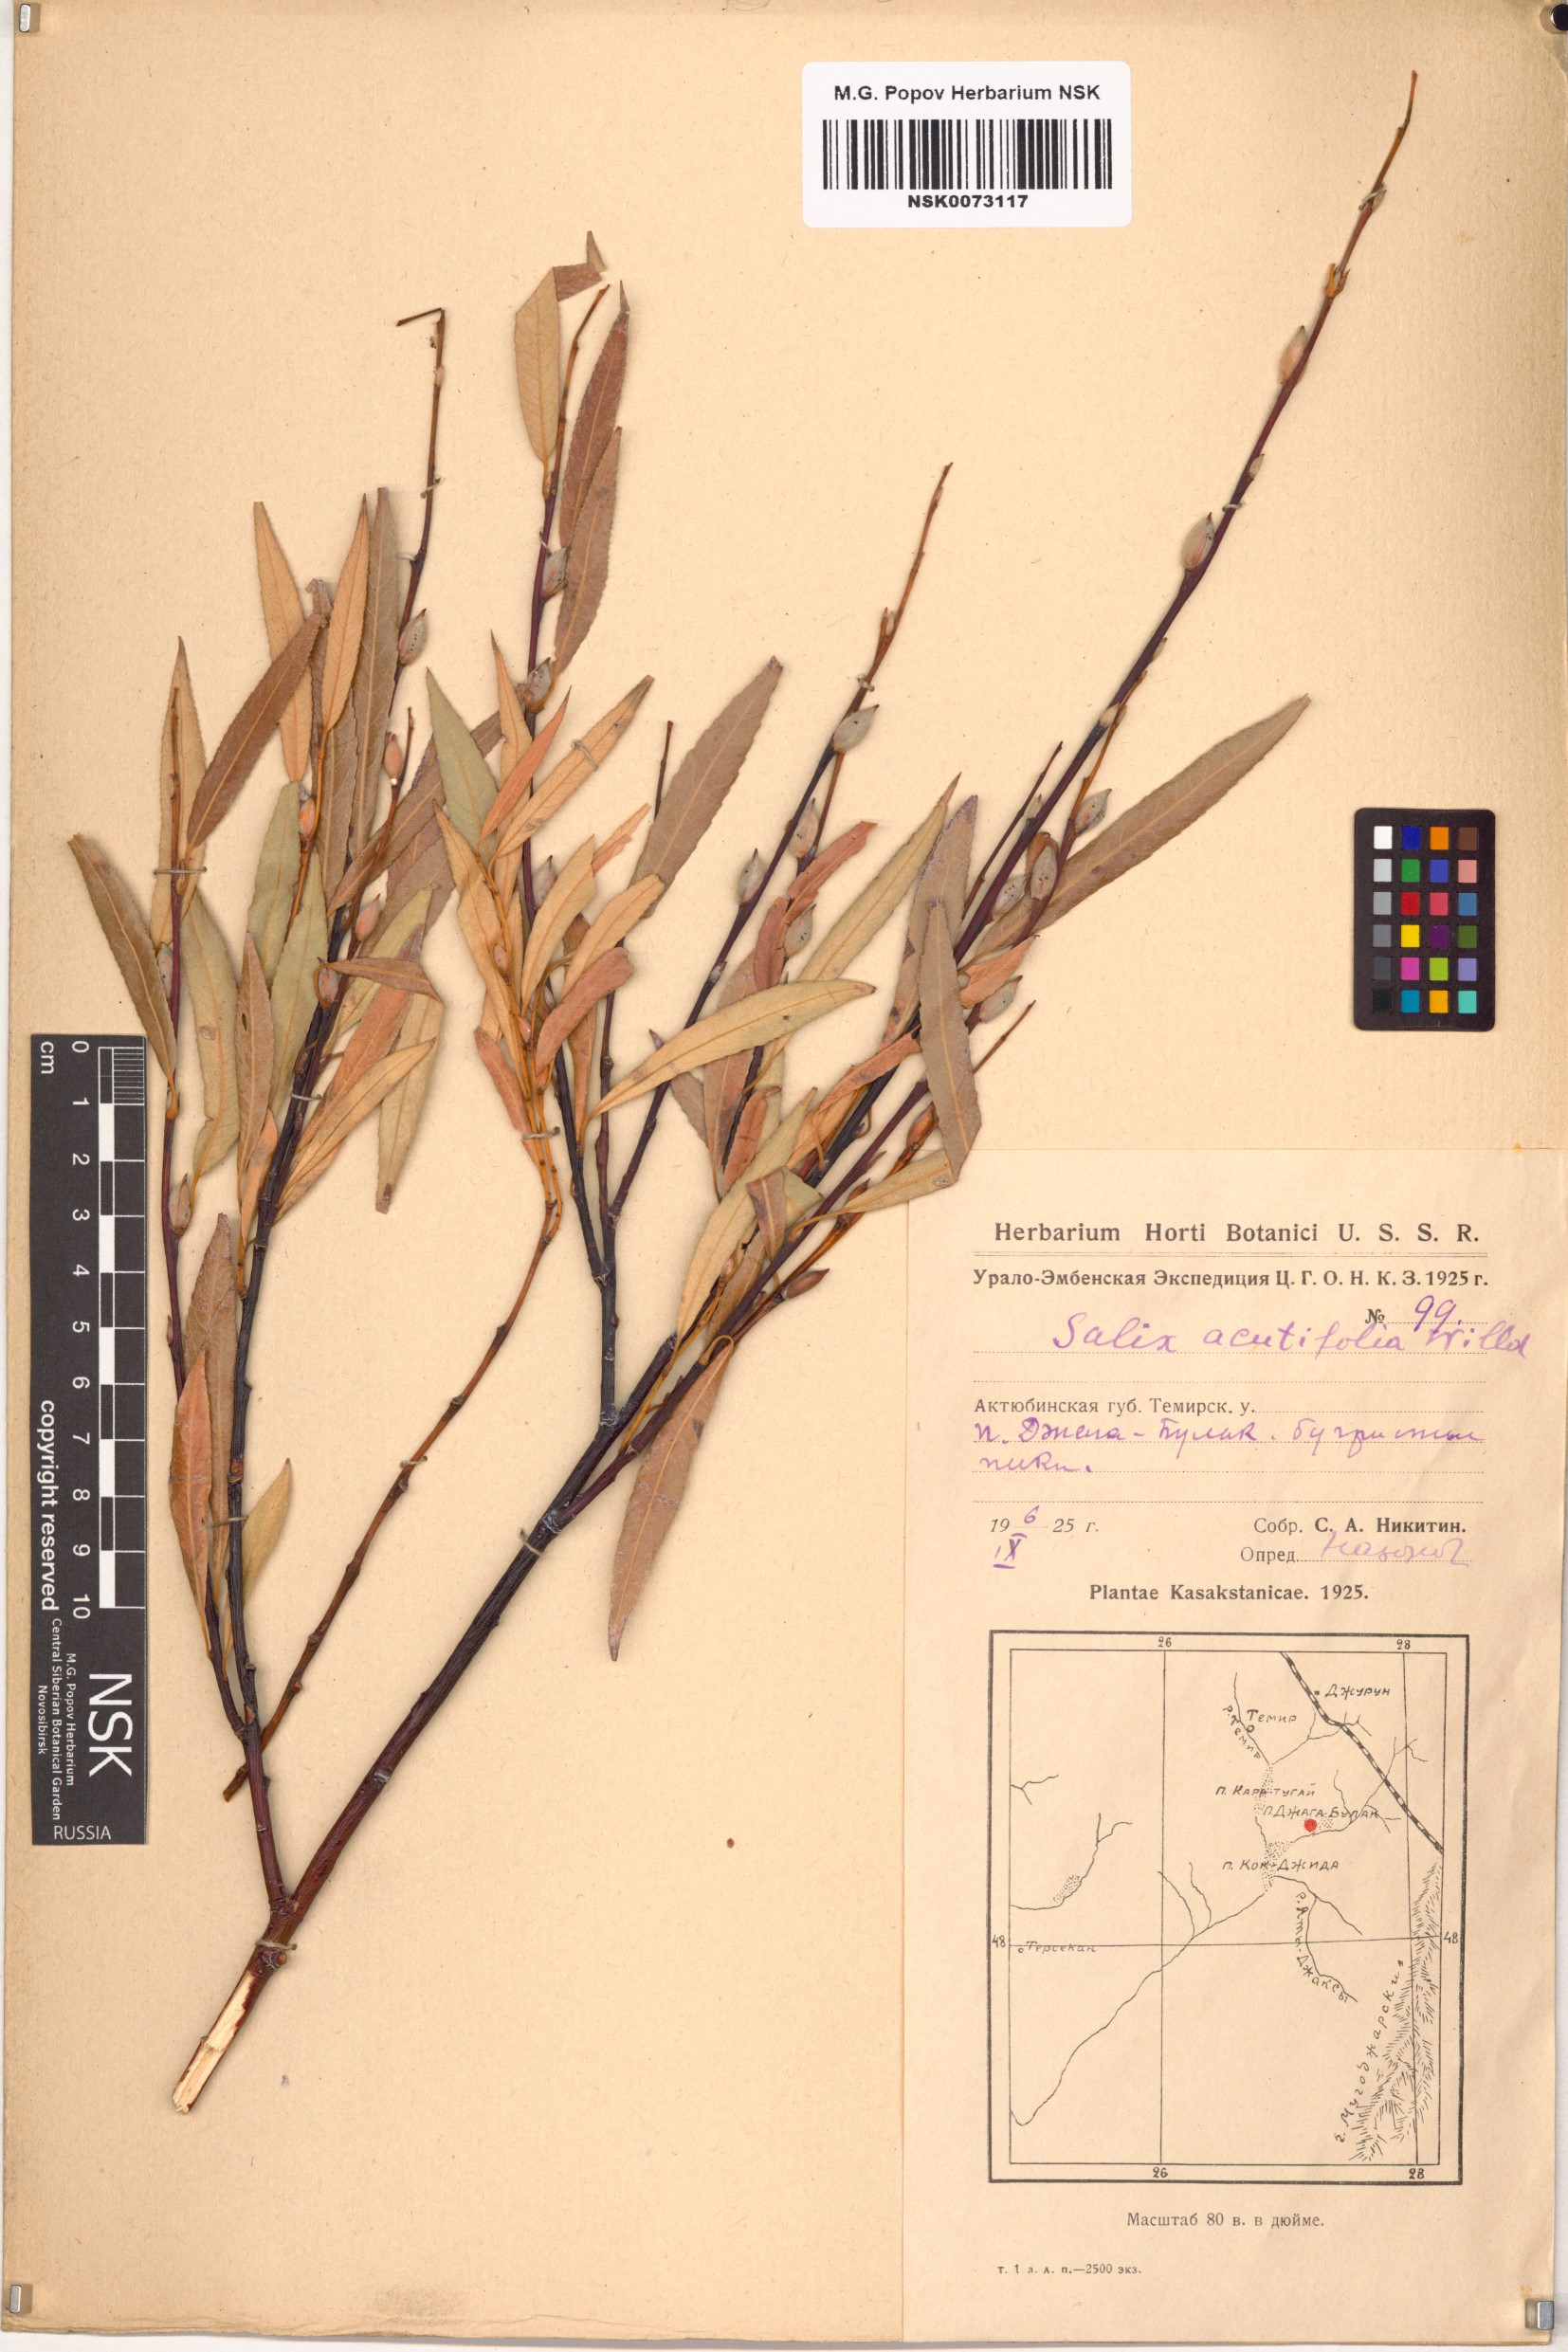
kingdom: Plantae
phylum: Tracheophyta
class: Magnoliopsida
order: Malpighiales
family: Salicaceae
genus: Salix
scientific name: Salix acutifolia
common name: Siberian violet-willow
